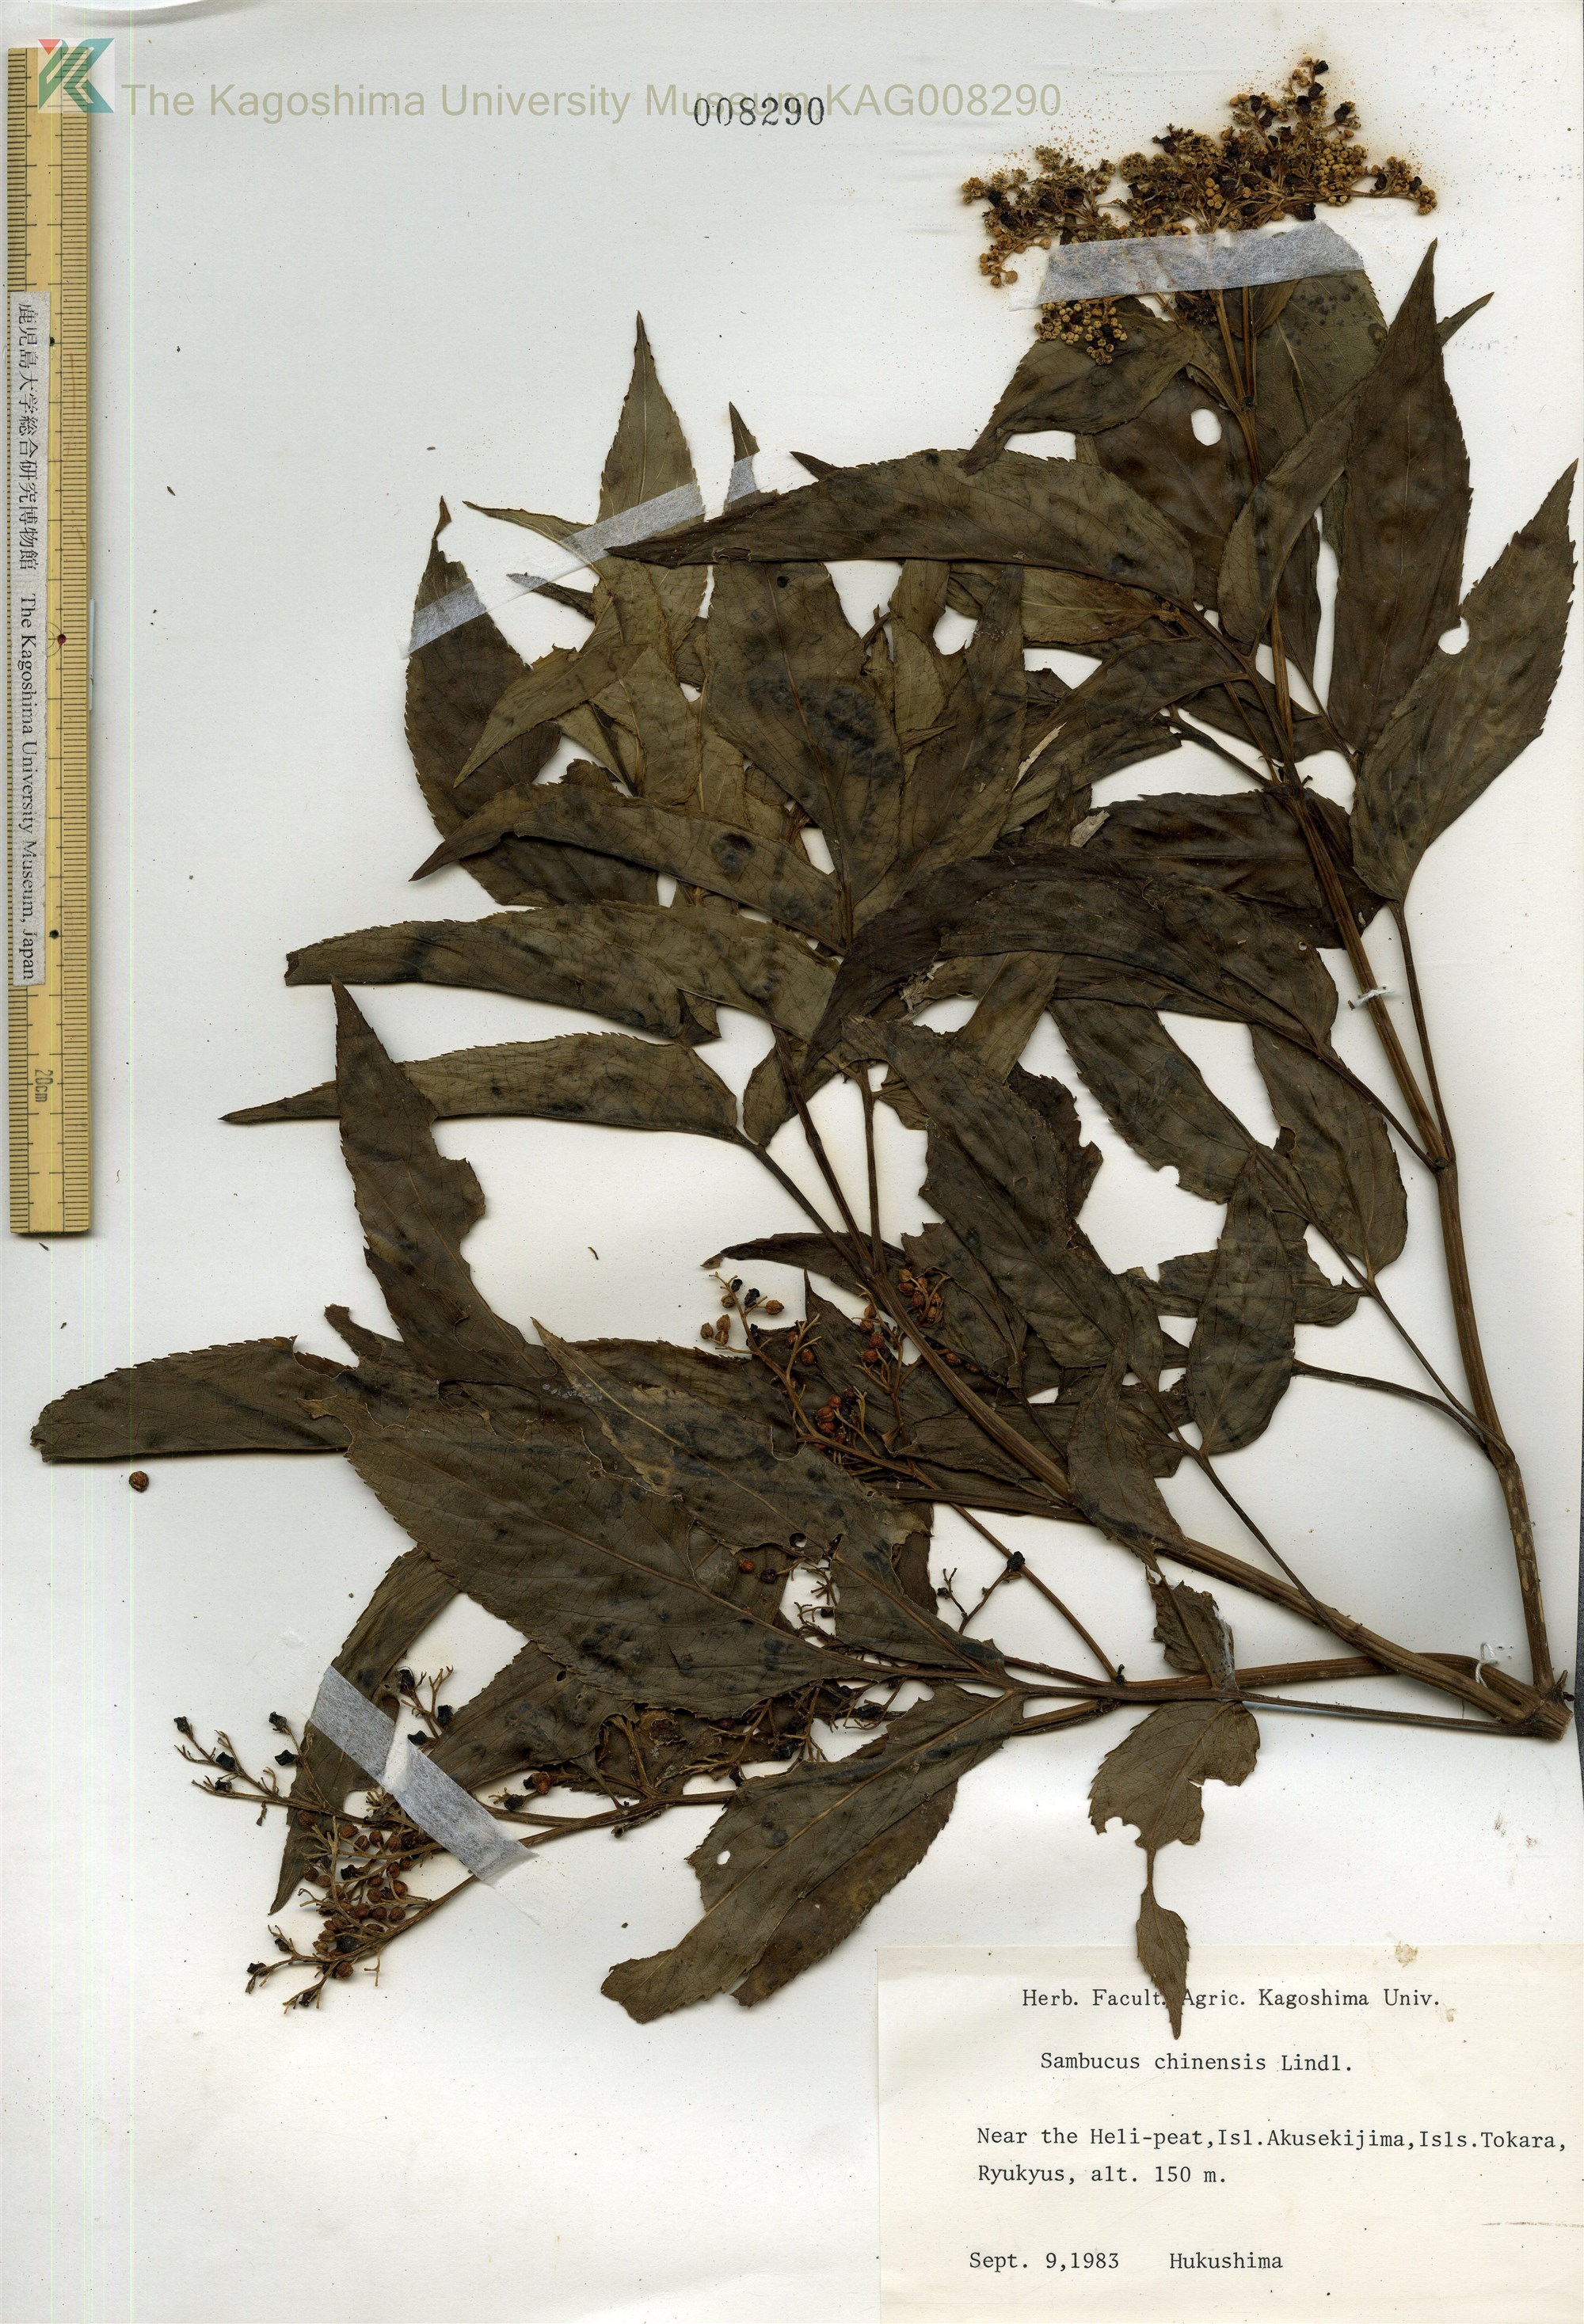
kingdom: Plantae
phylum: Tracheophyta
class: Magnoliopsida
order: Dipsacales
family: Viburnaceae
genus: Sambucus
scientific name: Sambucus javanica
